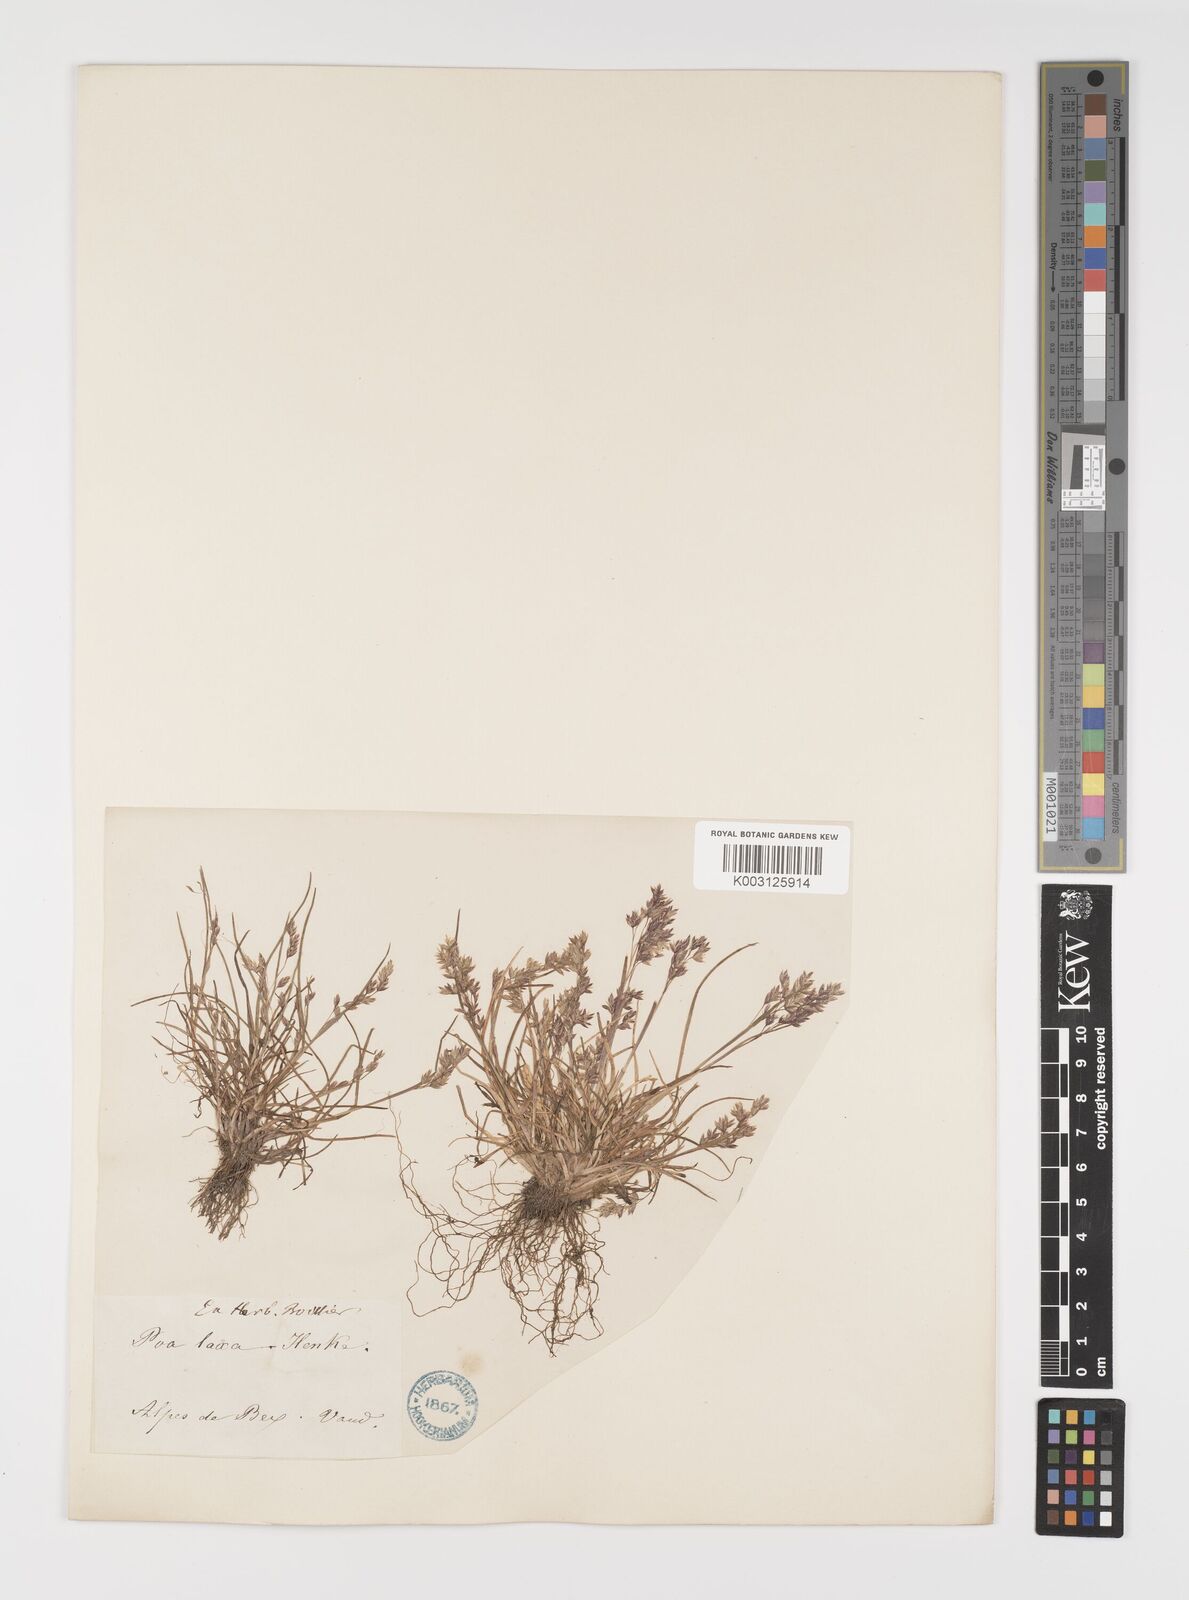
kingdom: Plantae
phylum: Tracheophyta
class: Liliopsida
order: Poales
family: Poaceae
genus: Poa
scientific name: Poa laxa
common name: Lax bluegrass
